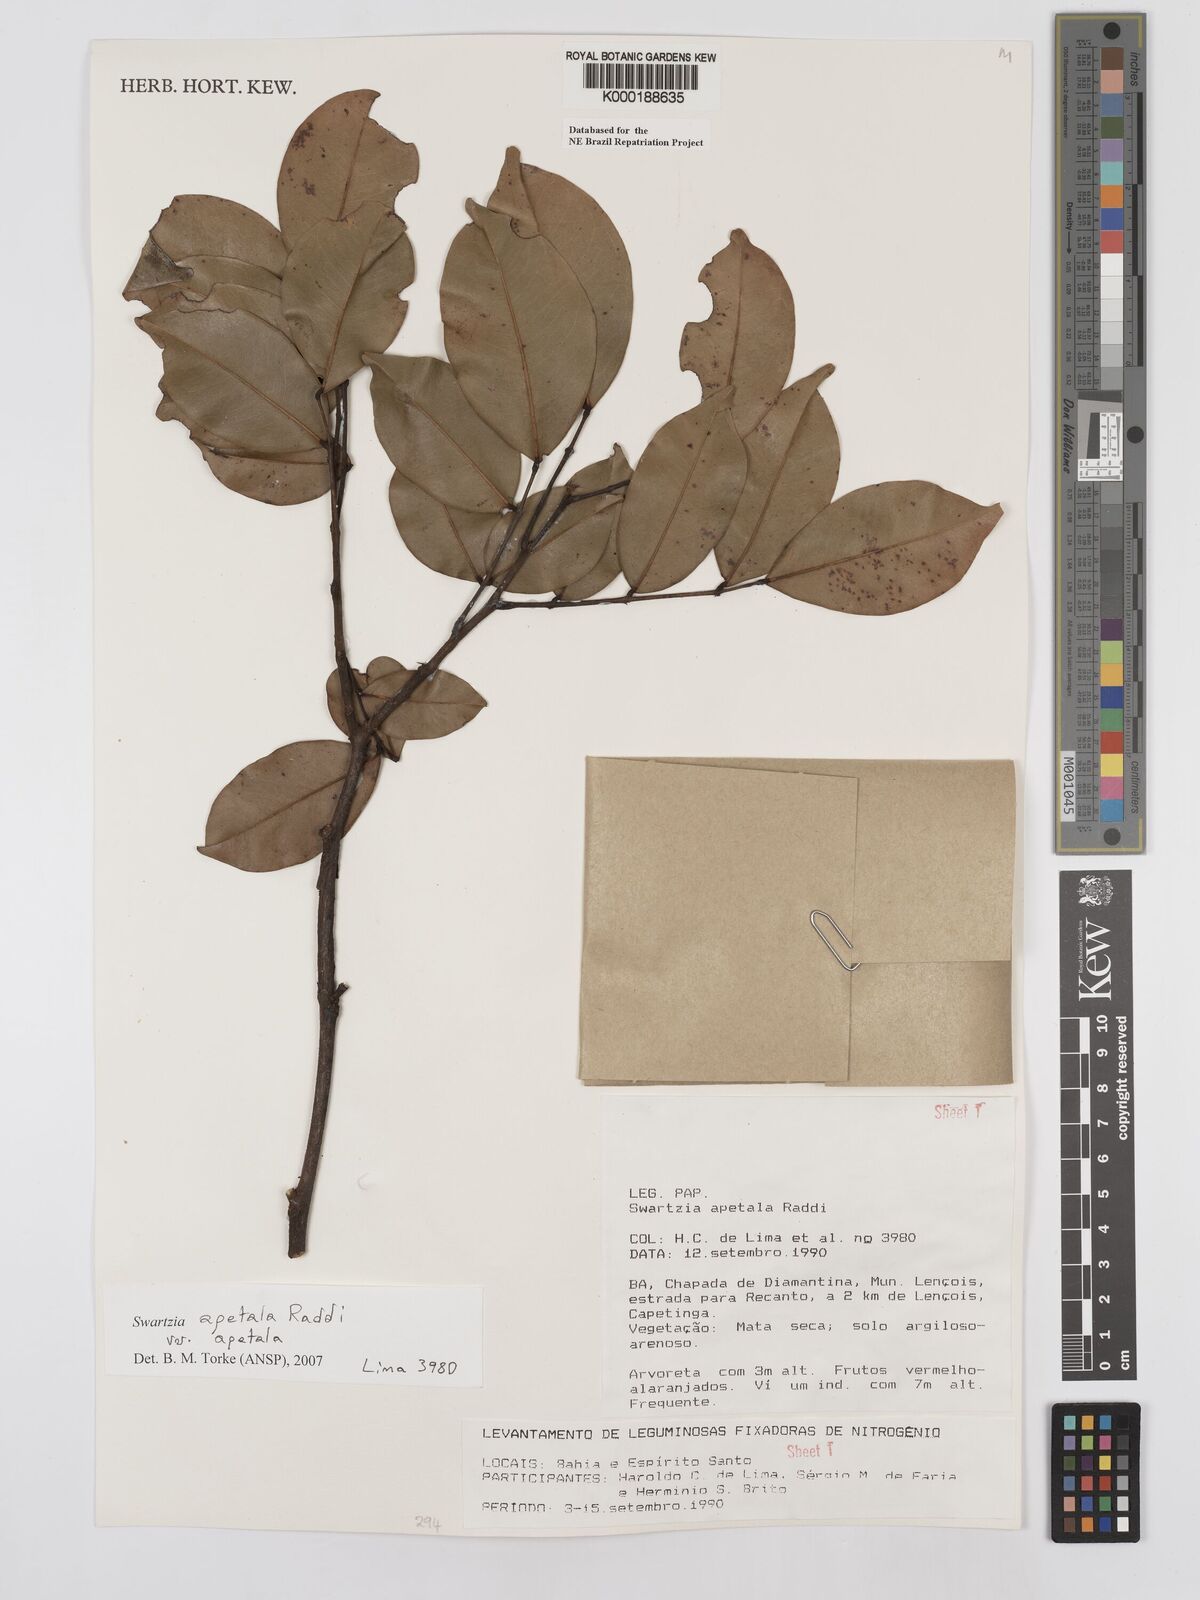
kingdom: Plantae
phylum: Tracheophyta
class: Magnoliopsida
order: Fabales
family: Fabaceae
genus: Swartzia
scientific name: Swartzia apetala
